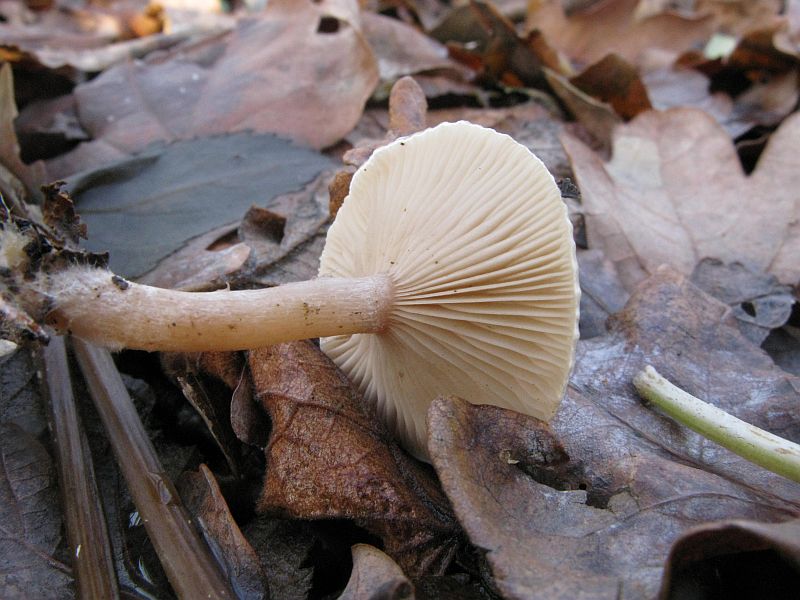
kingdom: Fungi
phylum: Basidiomycota
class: Agaricomycetes
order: Agaricales
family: Tricholomataceae
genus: Ripartites
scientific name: Ripartites tricholoma
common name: almindelig skæghat
